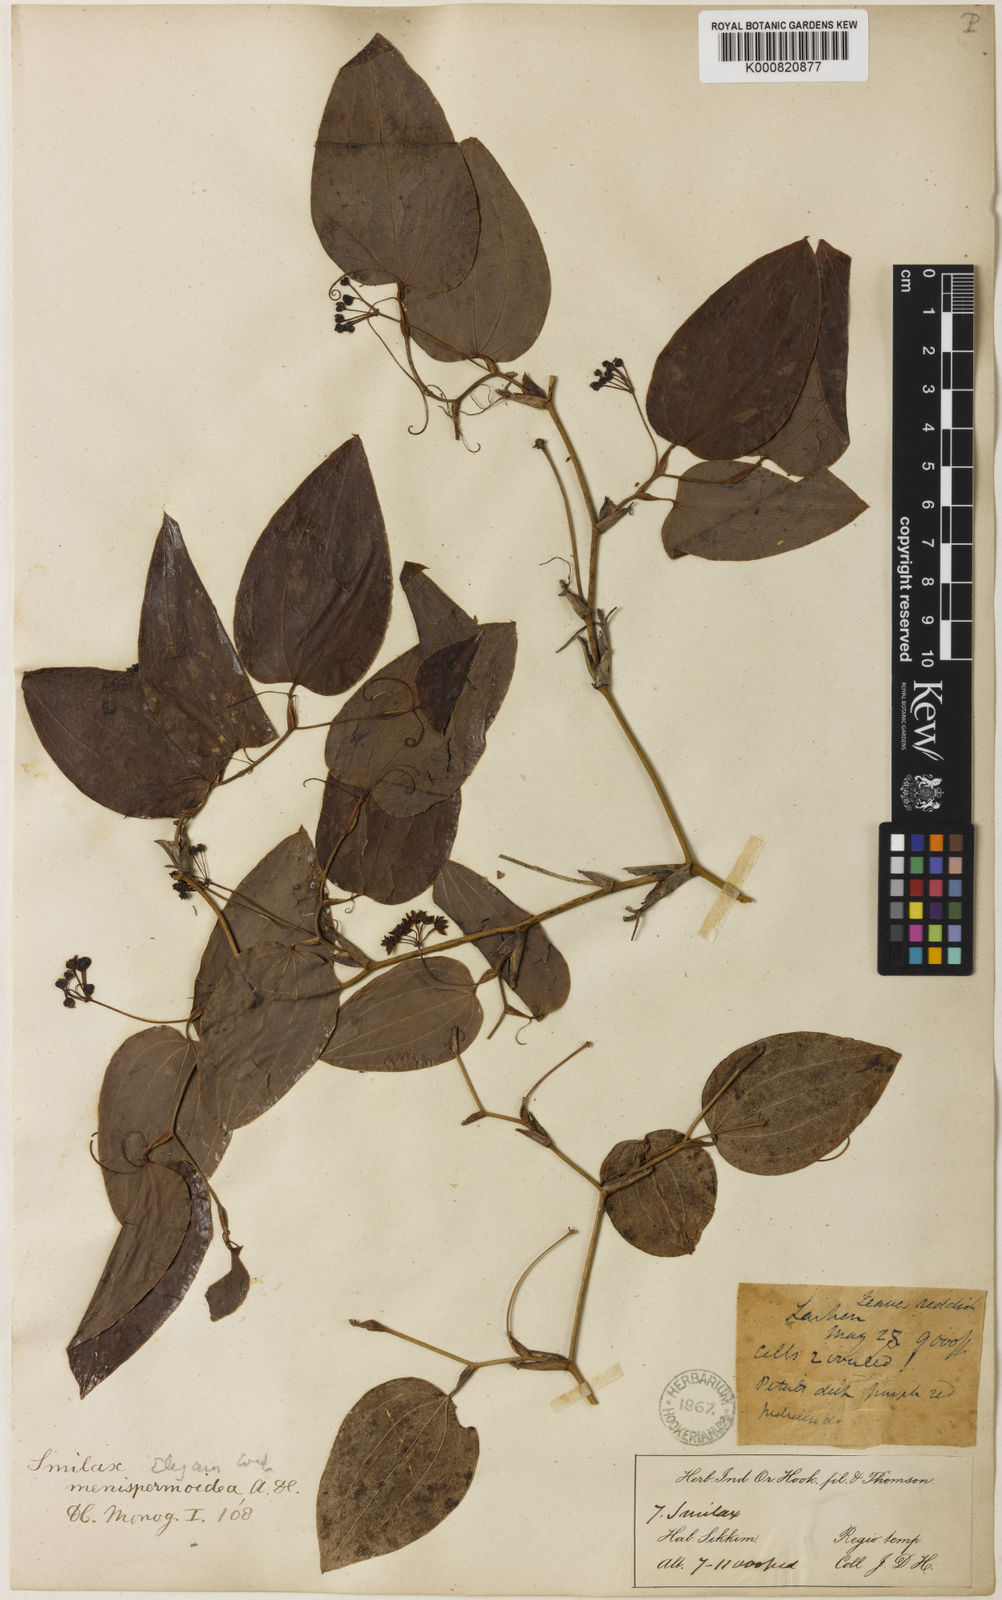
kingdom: Plantae
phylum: Tracheophyta
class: Liliopsida
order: Liliales
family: Smilacaceae
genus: Smilax
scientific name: Smilax menispermoidea
